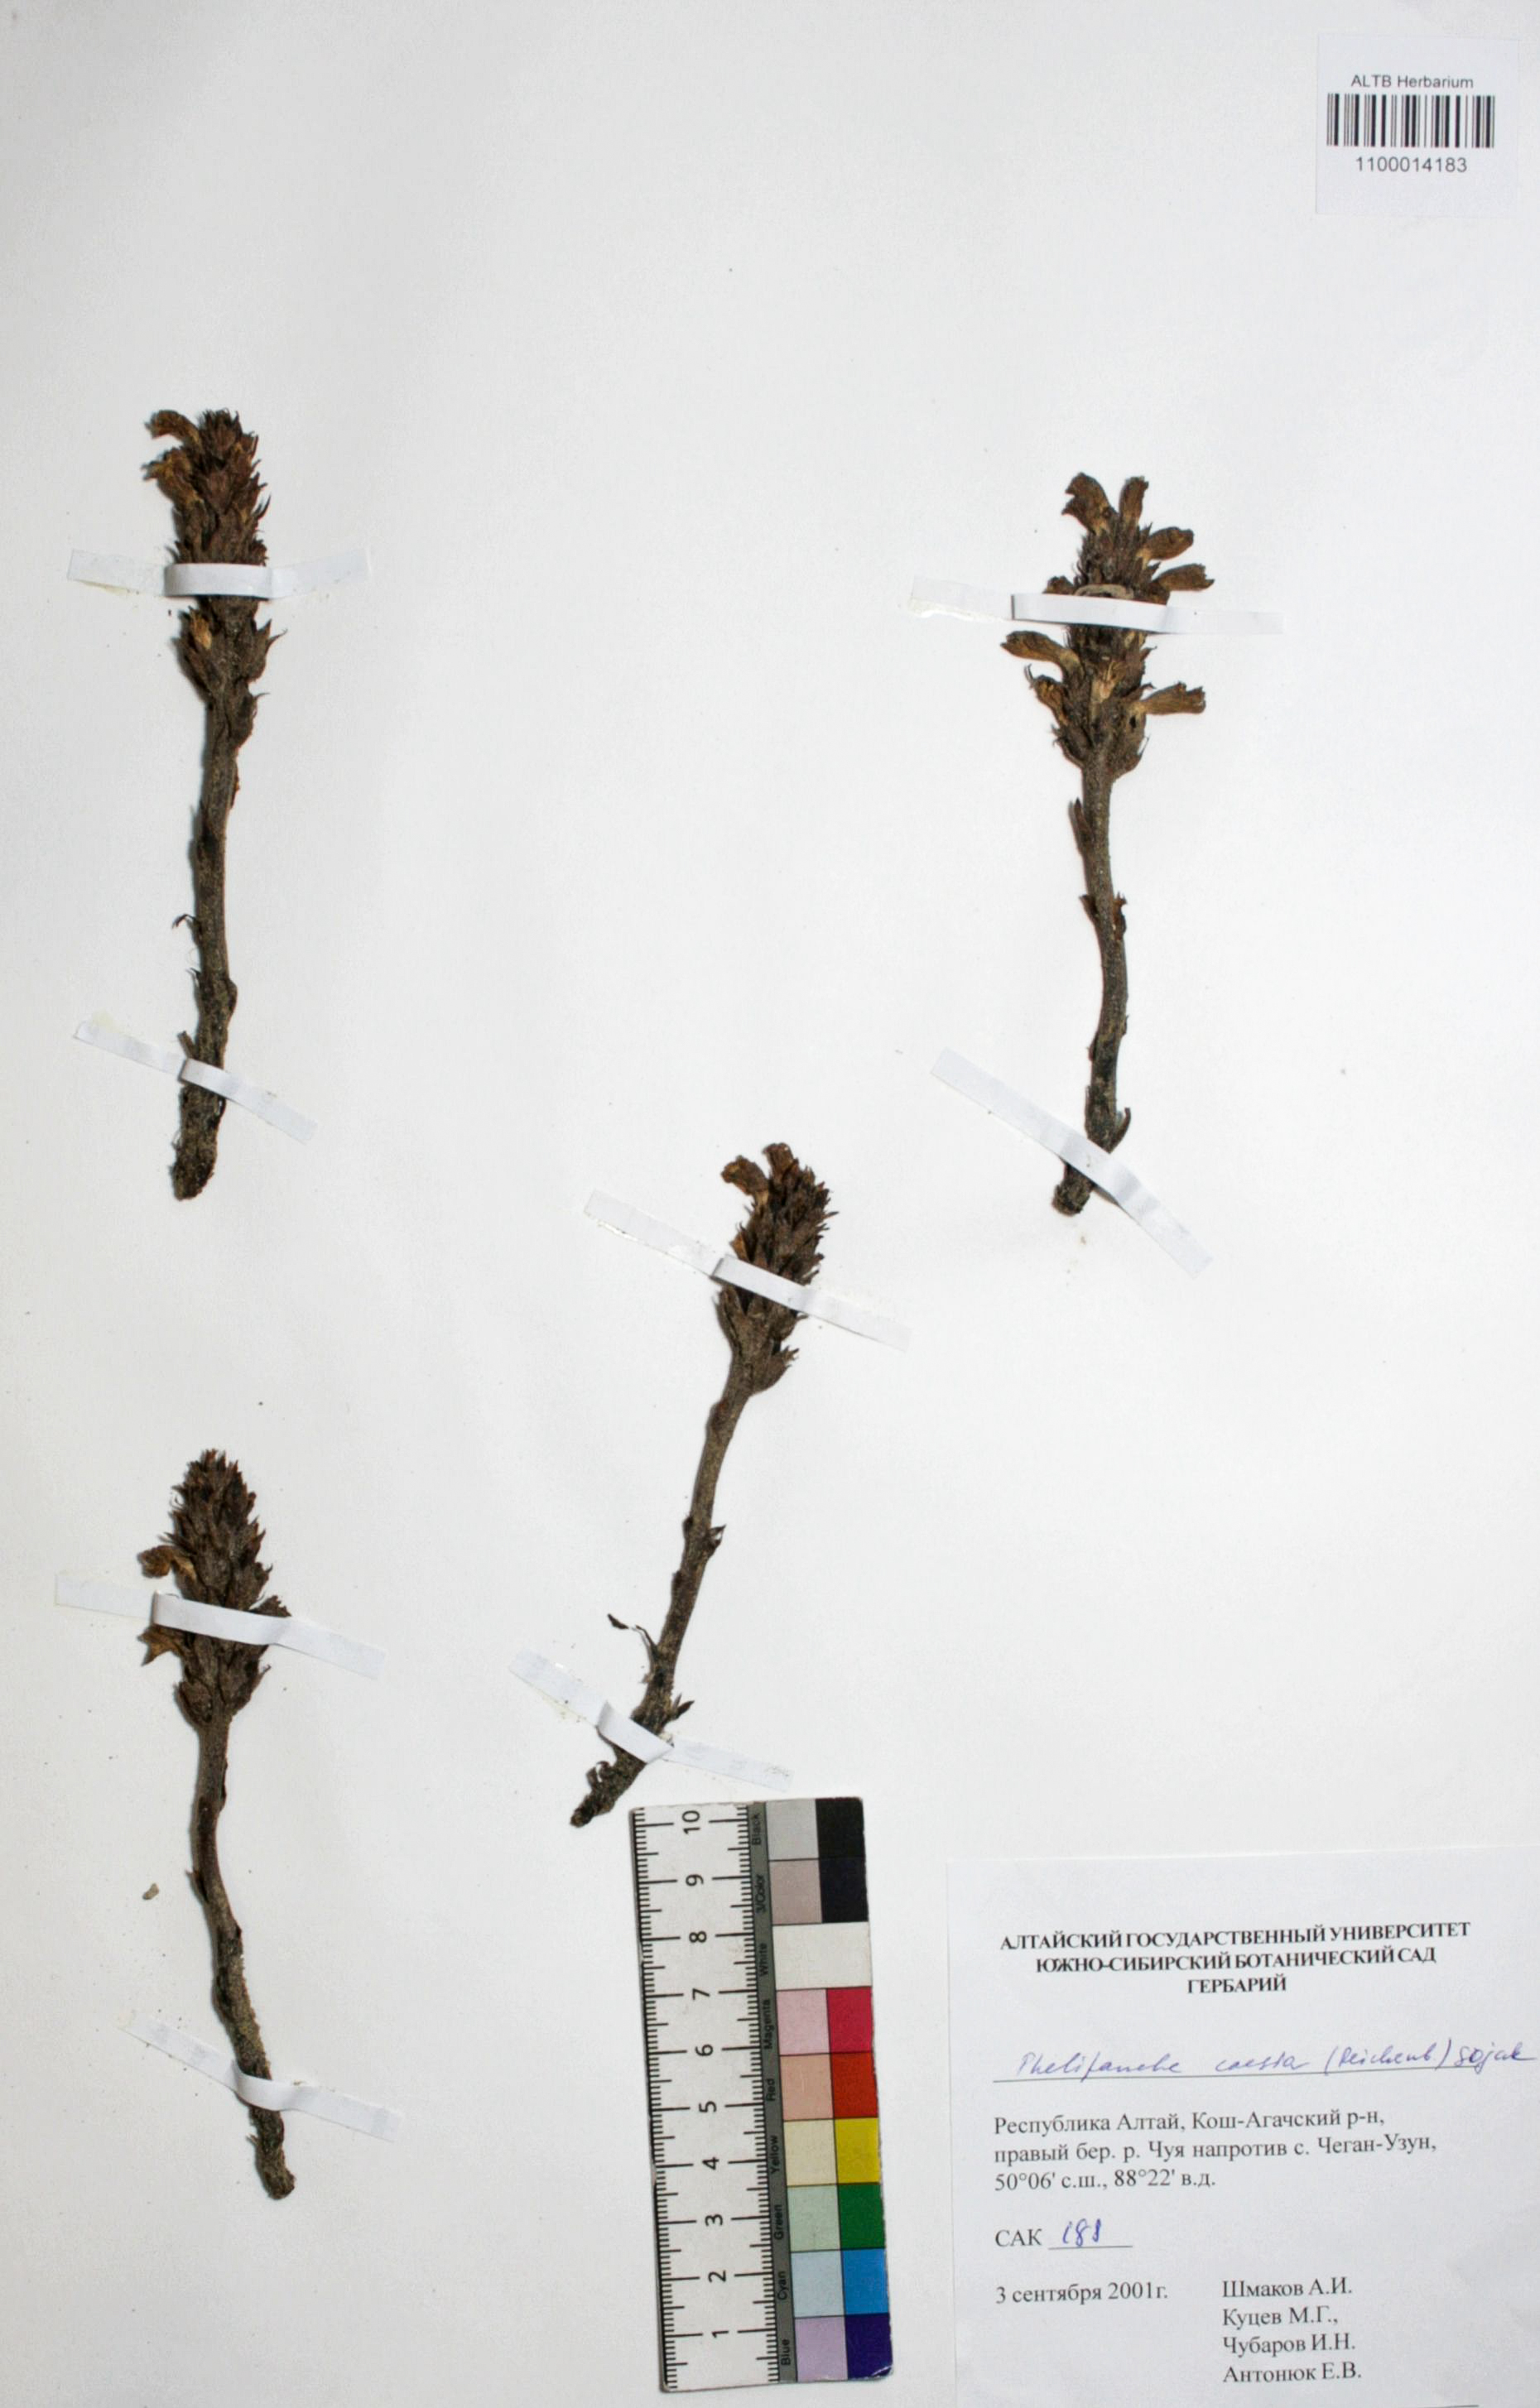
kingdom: Plantae
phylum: Tracheophyta
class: Magnoliopsida
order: Lamiales
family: Orobanchaceae
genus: Phelipanche
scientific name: Phelipanche caesia
